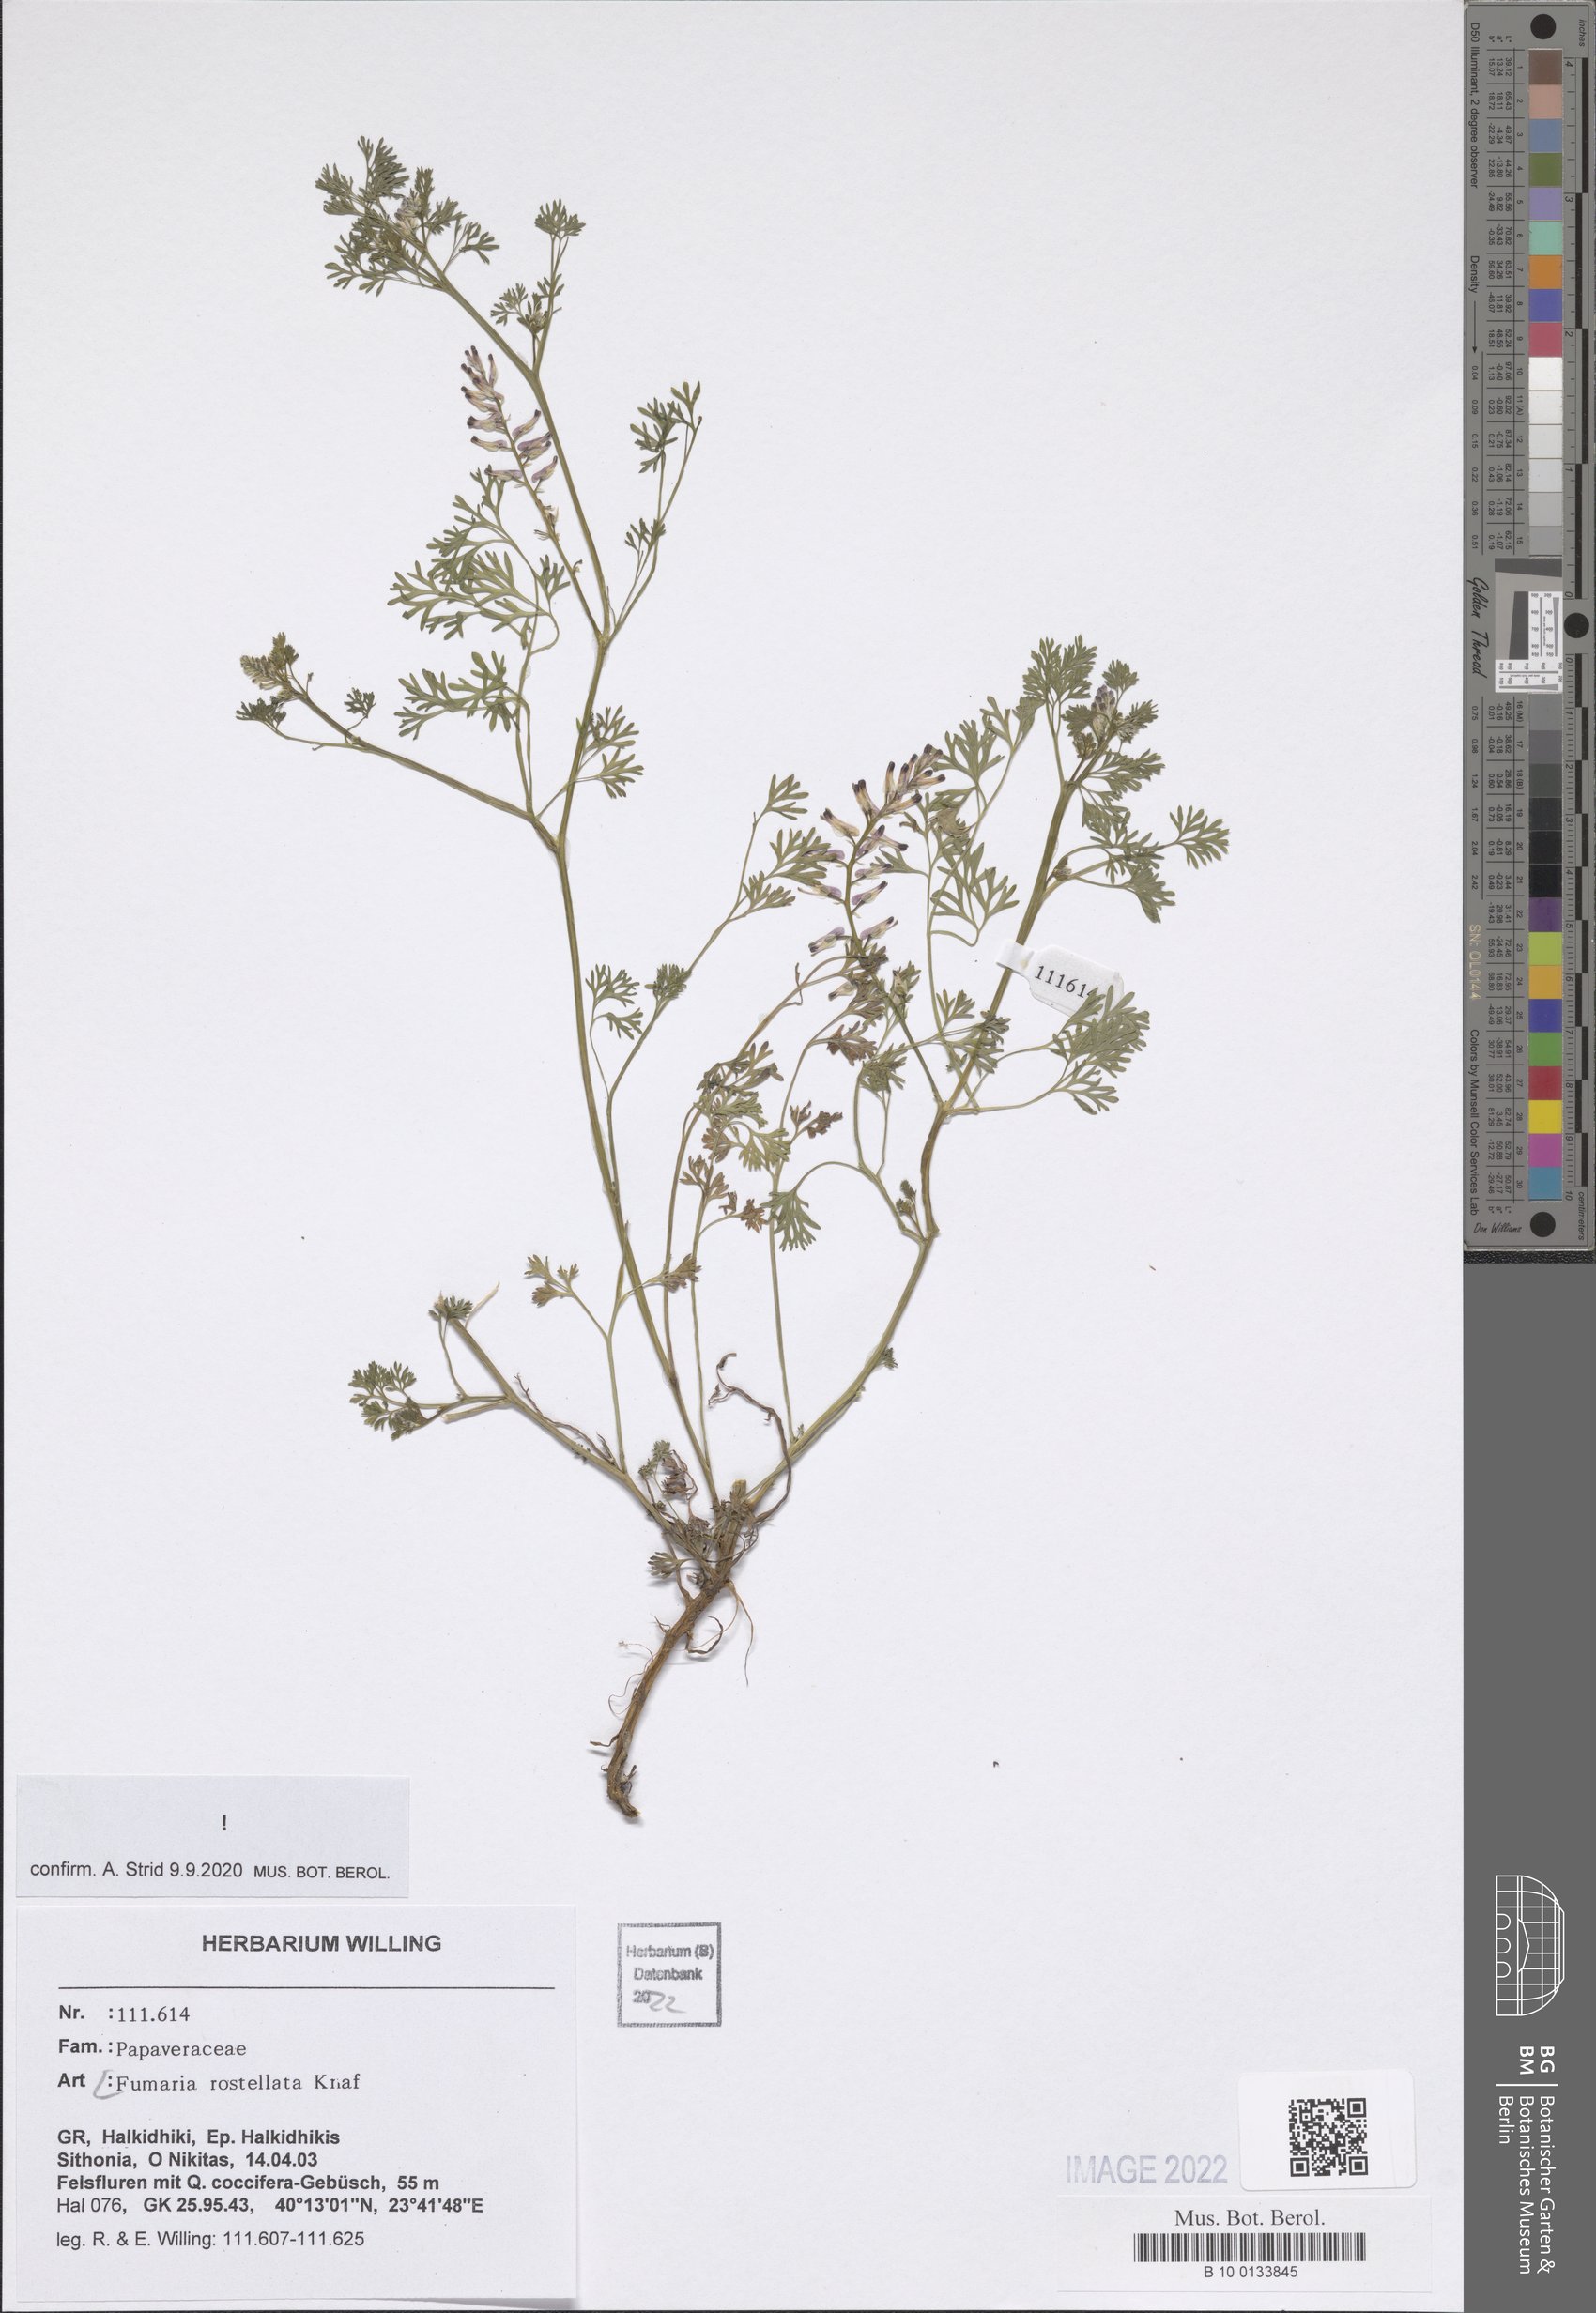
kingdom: Plantae
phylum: Tracheophyta
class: Magnoliopsida
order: Ranunculales
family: Papaveraceae
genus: Fumaria
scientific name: Fumaria rostellata
